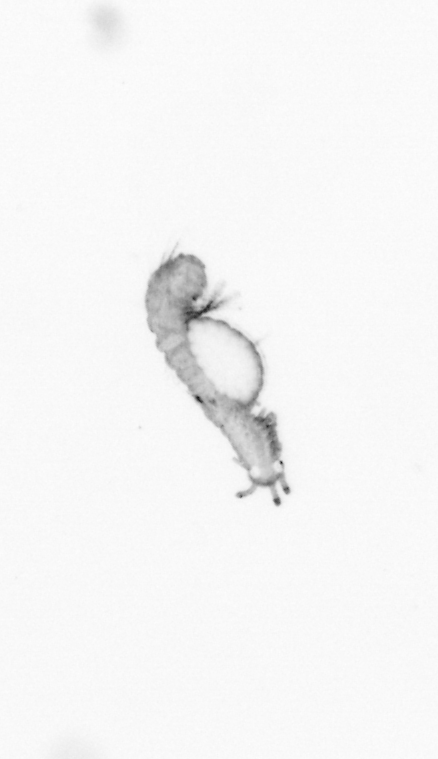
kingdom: Animalia
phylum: Annelida
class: Polychaeta
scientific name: Polychaeta
